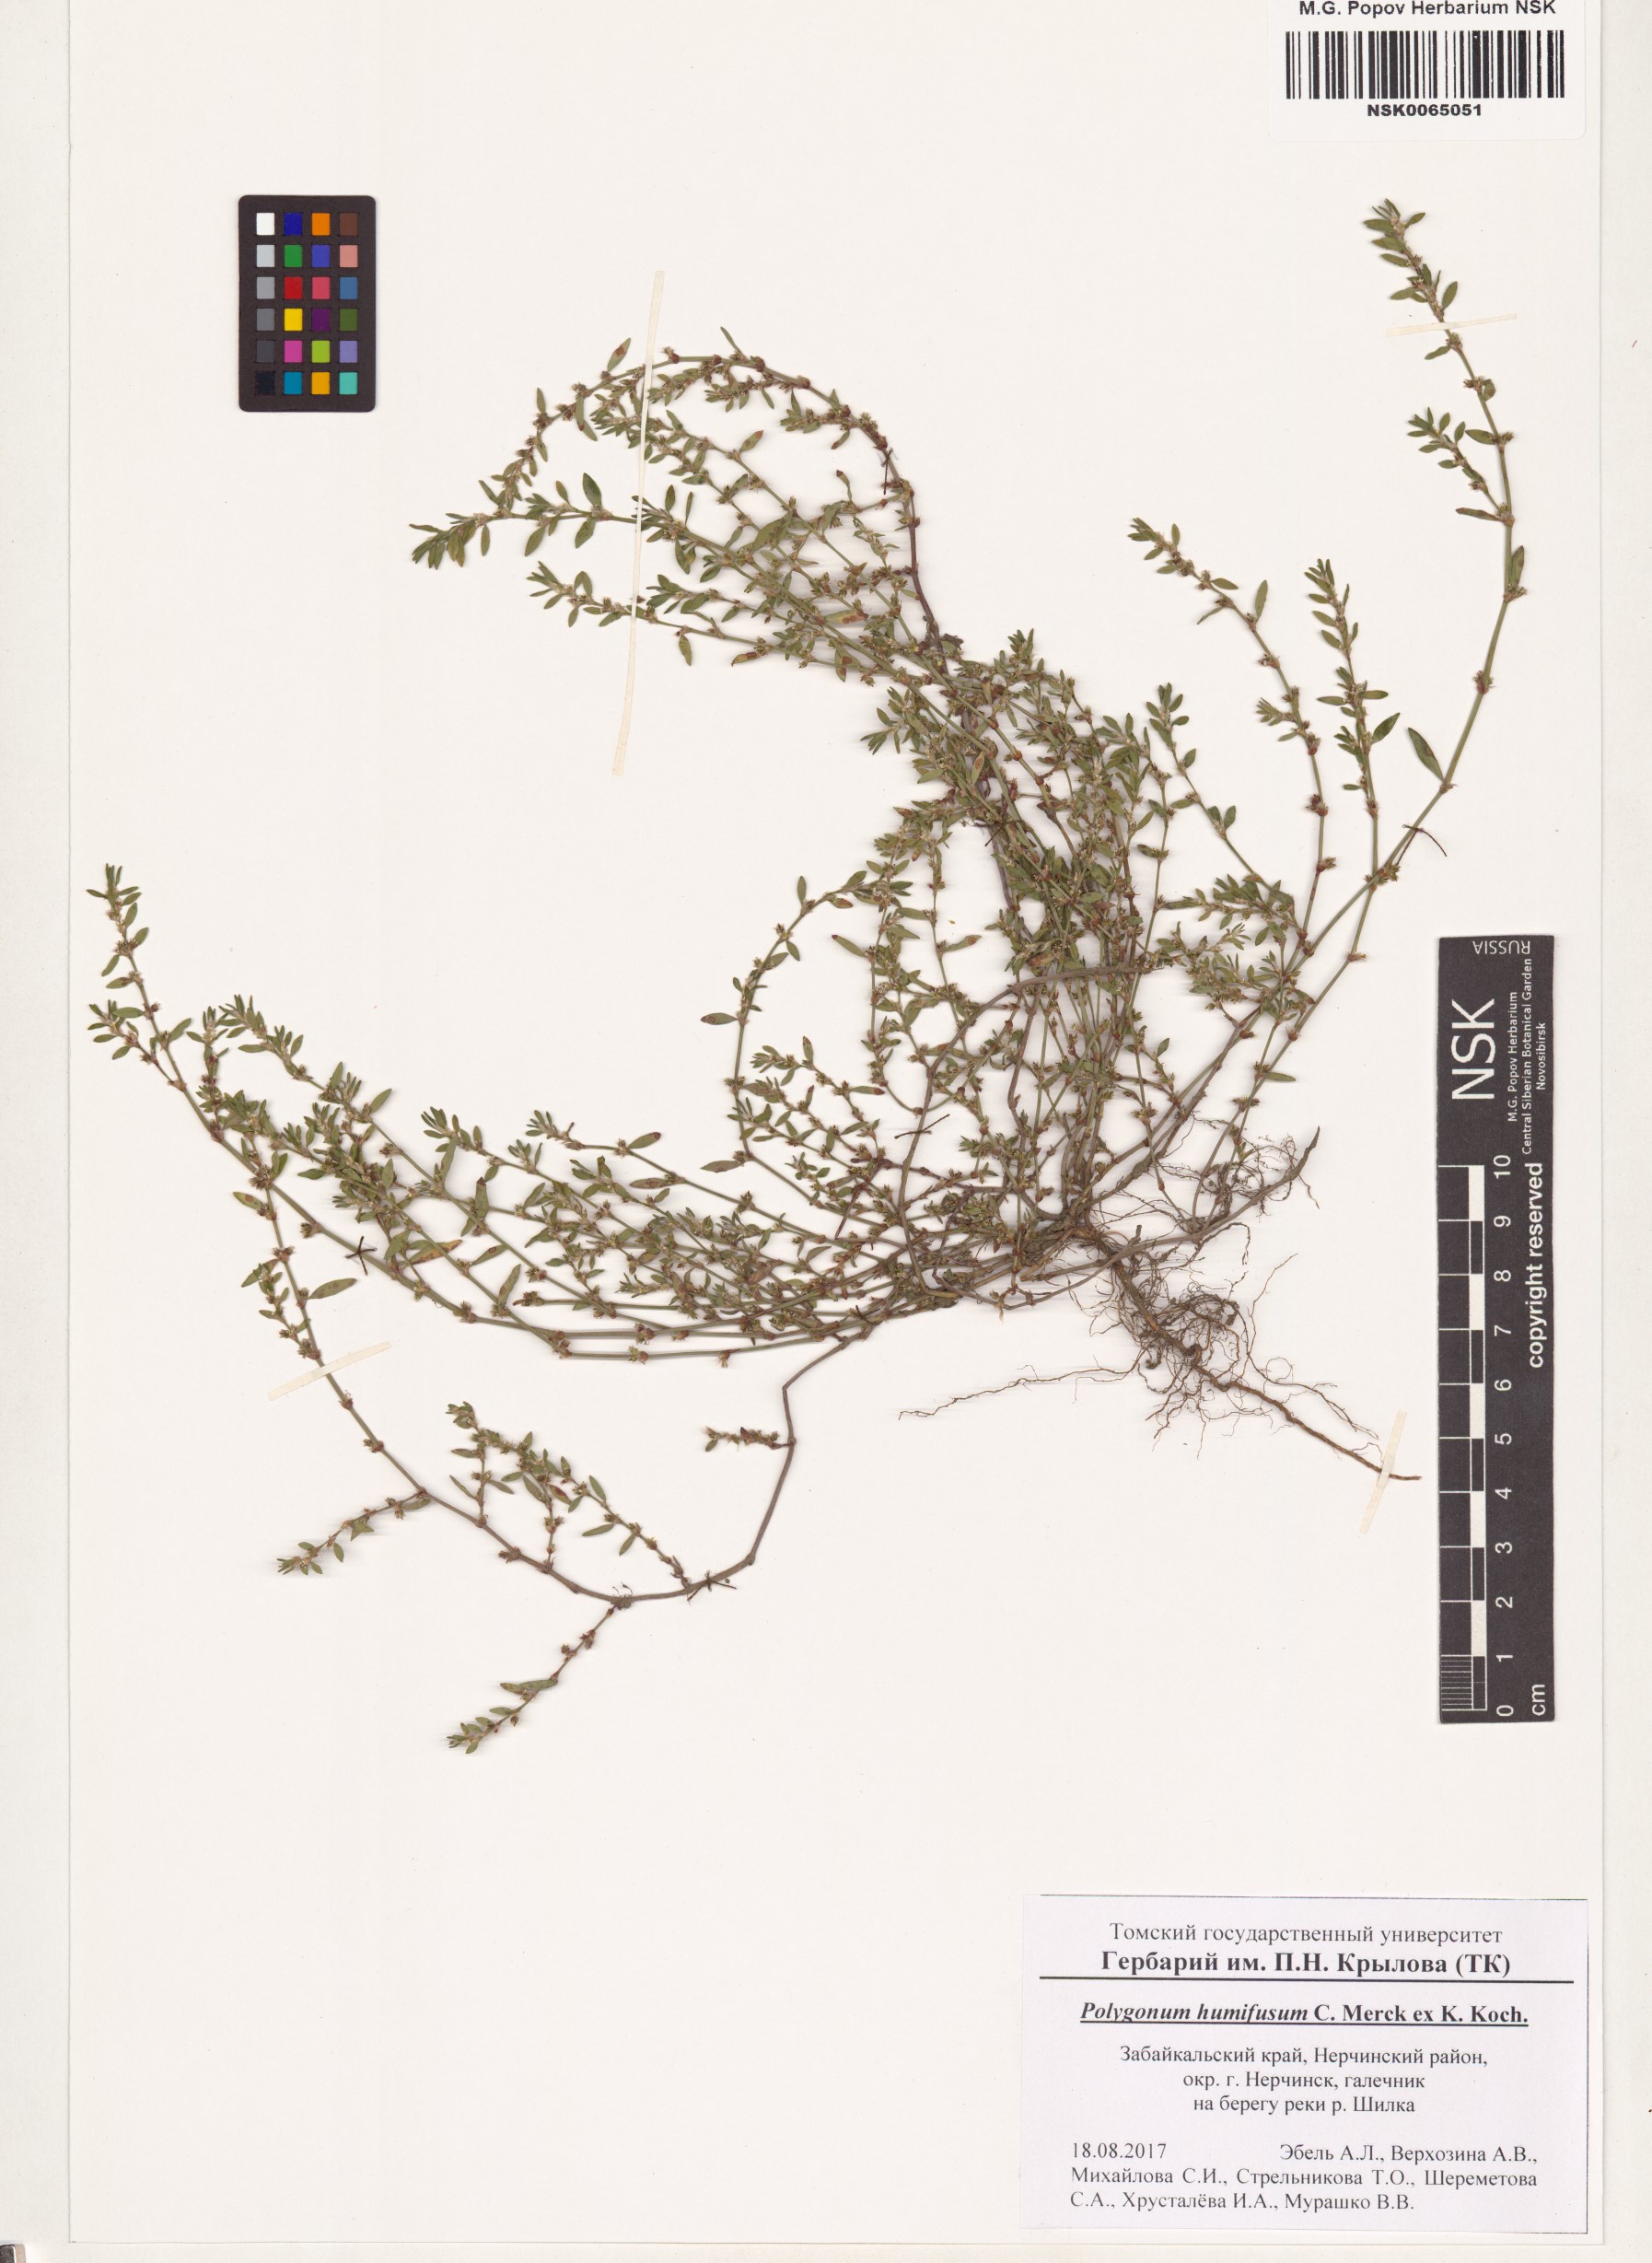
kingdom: Plantae
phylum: Tracheophyta
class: Magnoliopsida
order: Caryophyllales
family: Polygonaceae
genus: Polygonum
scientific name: Polygonum humifusum
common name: Alaska knotweed
